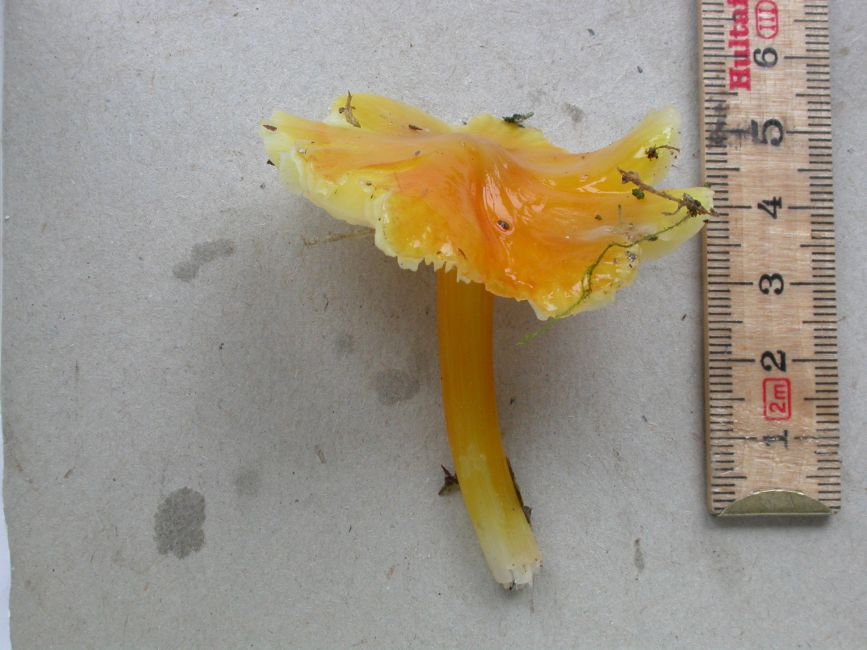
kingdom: Fungi
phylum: Basidiomycota
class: Agaricomycetes
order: Agaricales
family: Hygrophoraceae
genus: Hygrocybe
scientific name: Hygrocybe acutoconica
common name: spidspuklet vokshat
